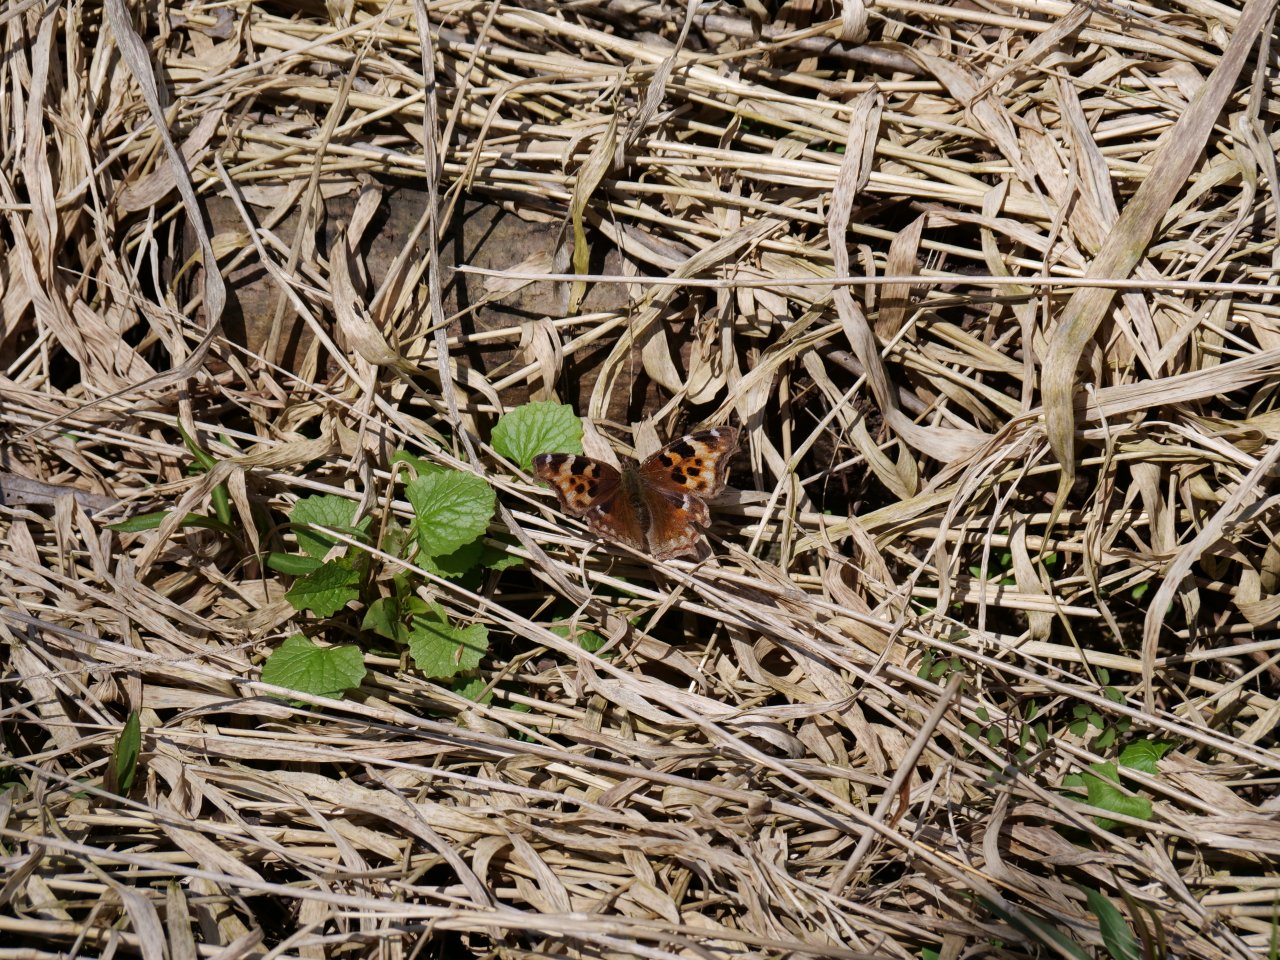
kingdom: Animalia
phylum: Arthropoda
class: Insecta
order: Lepidoptera
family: Nymphalidae
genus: Polygonia
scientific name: Polygonia vaualbum
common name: Compton Tortoiseshell
